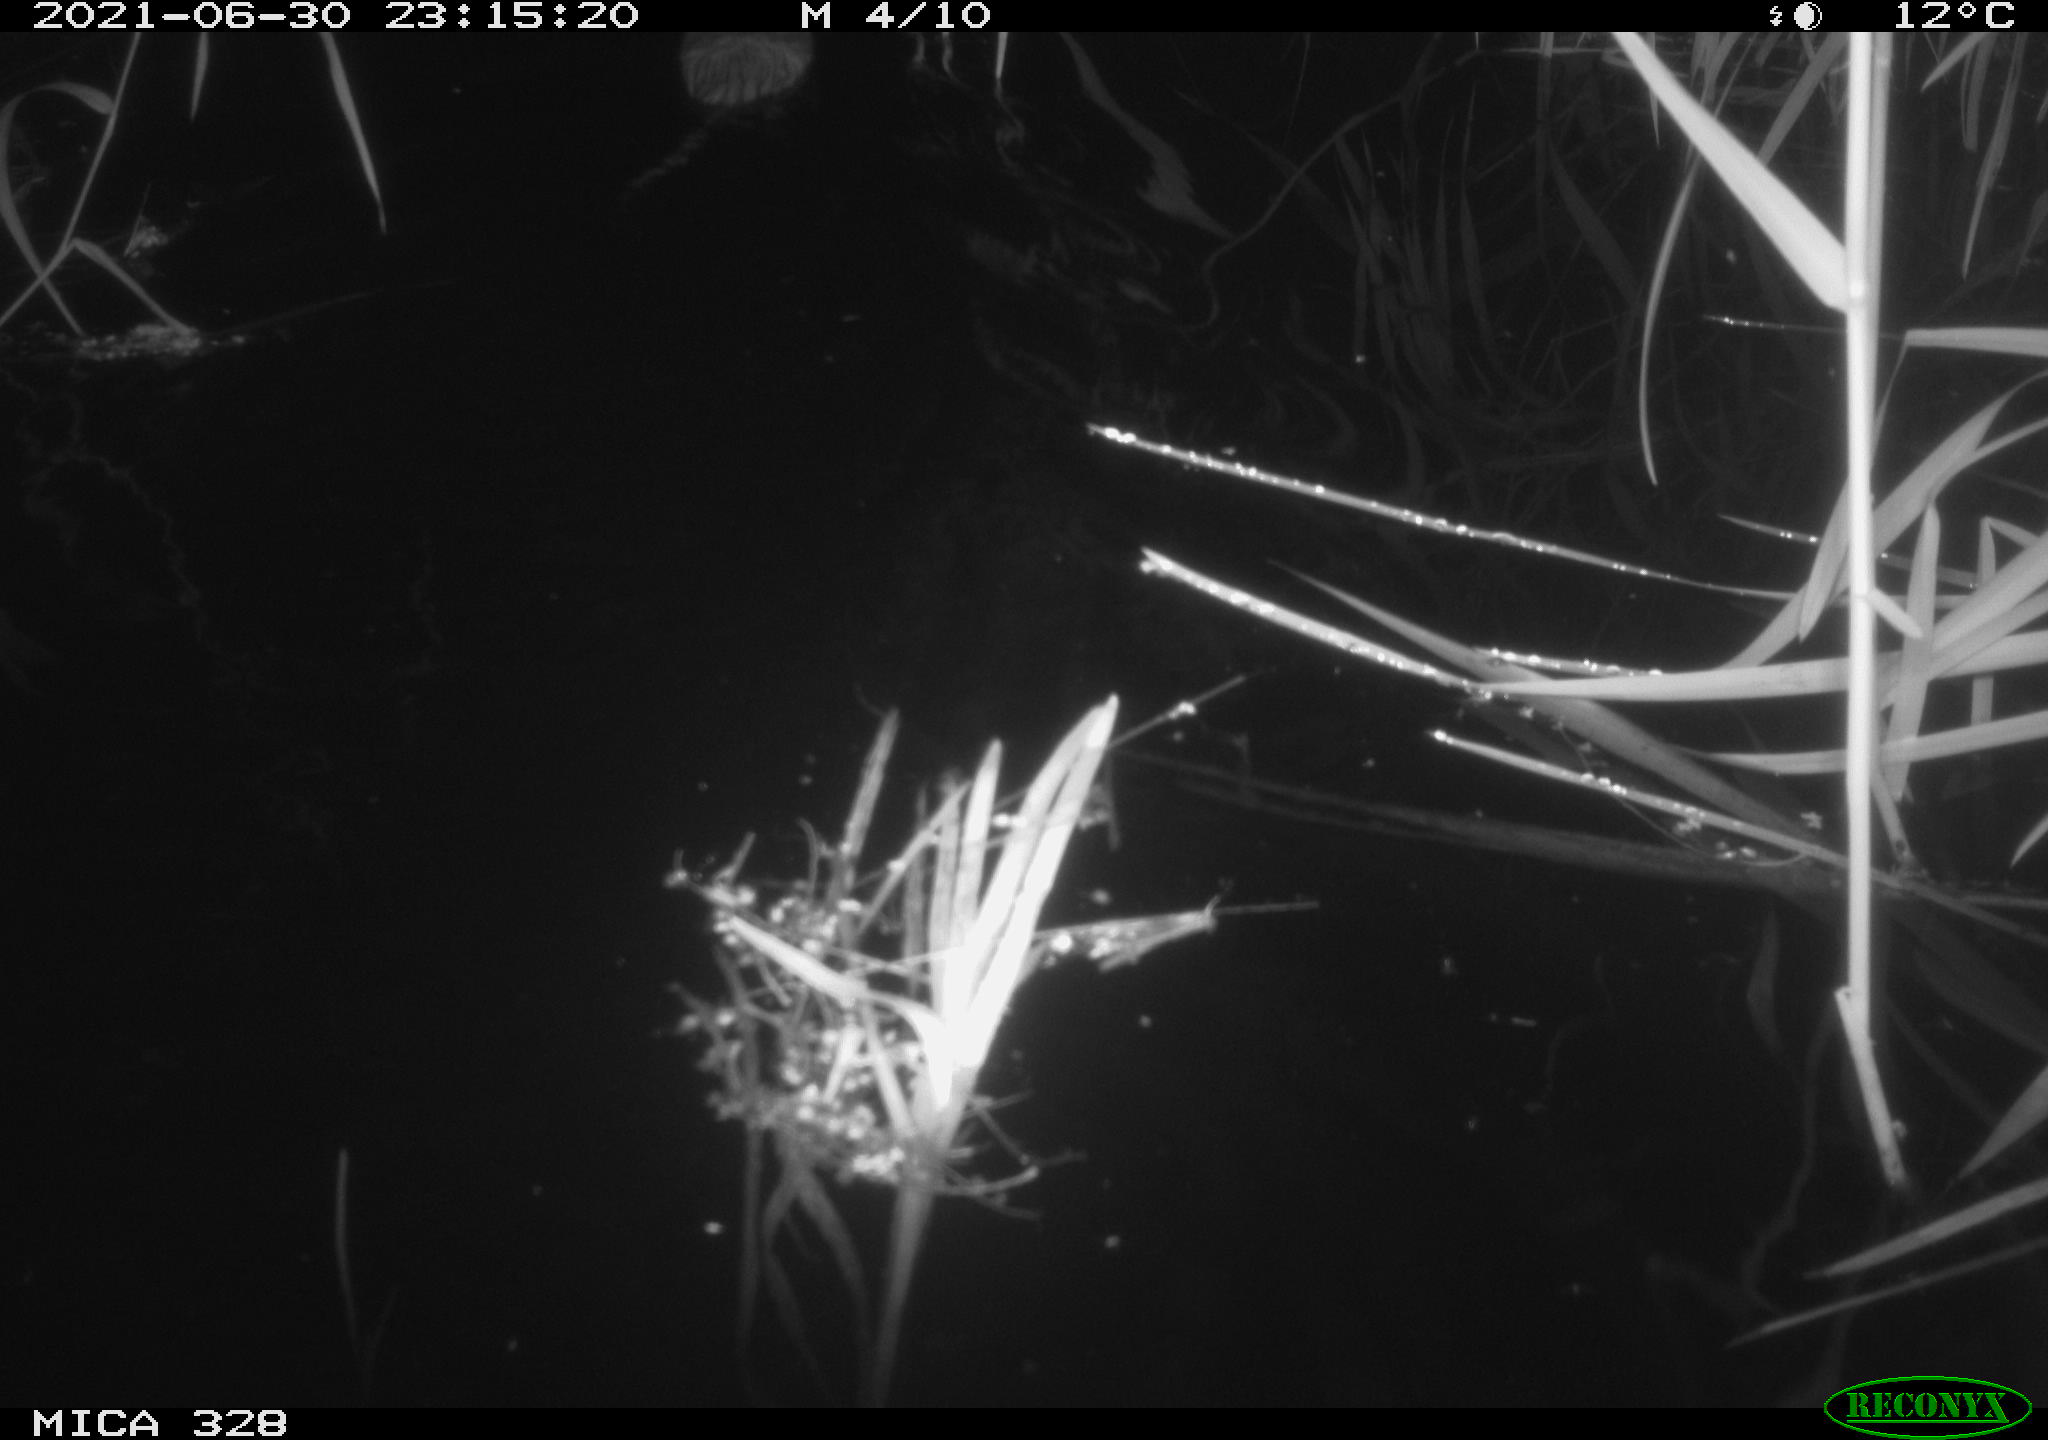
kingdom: Animalia
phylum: Chordata
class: Mammalia
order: Rodentia
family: Cricetidae
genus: Ondatra
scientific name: Ondatra zibethicus
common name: Muskrat
